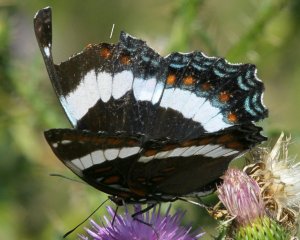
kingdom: Animalia
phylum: Arthropoda
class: Insecta
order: Lepidoptera
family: Nymphalidae
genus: Limenitis
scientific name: Limenitis arthemis
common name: Red-spotted Admiral
